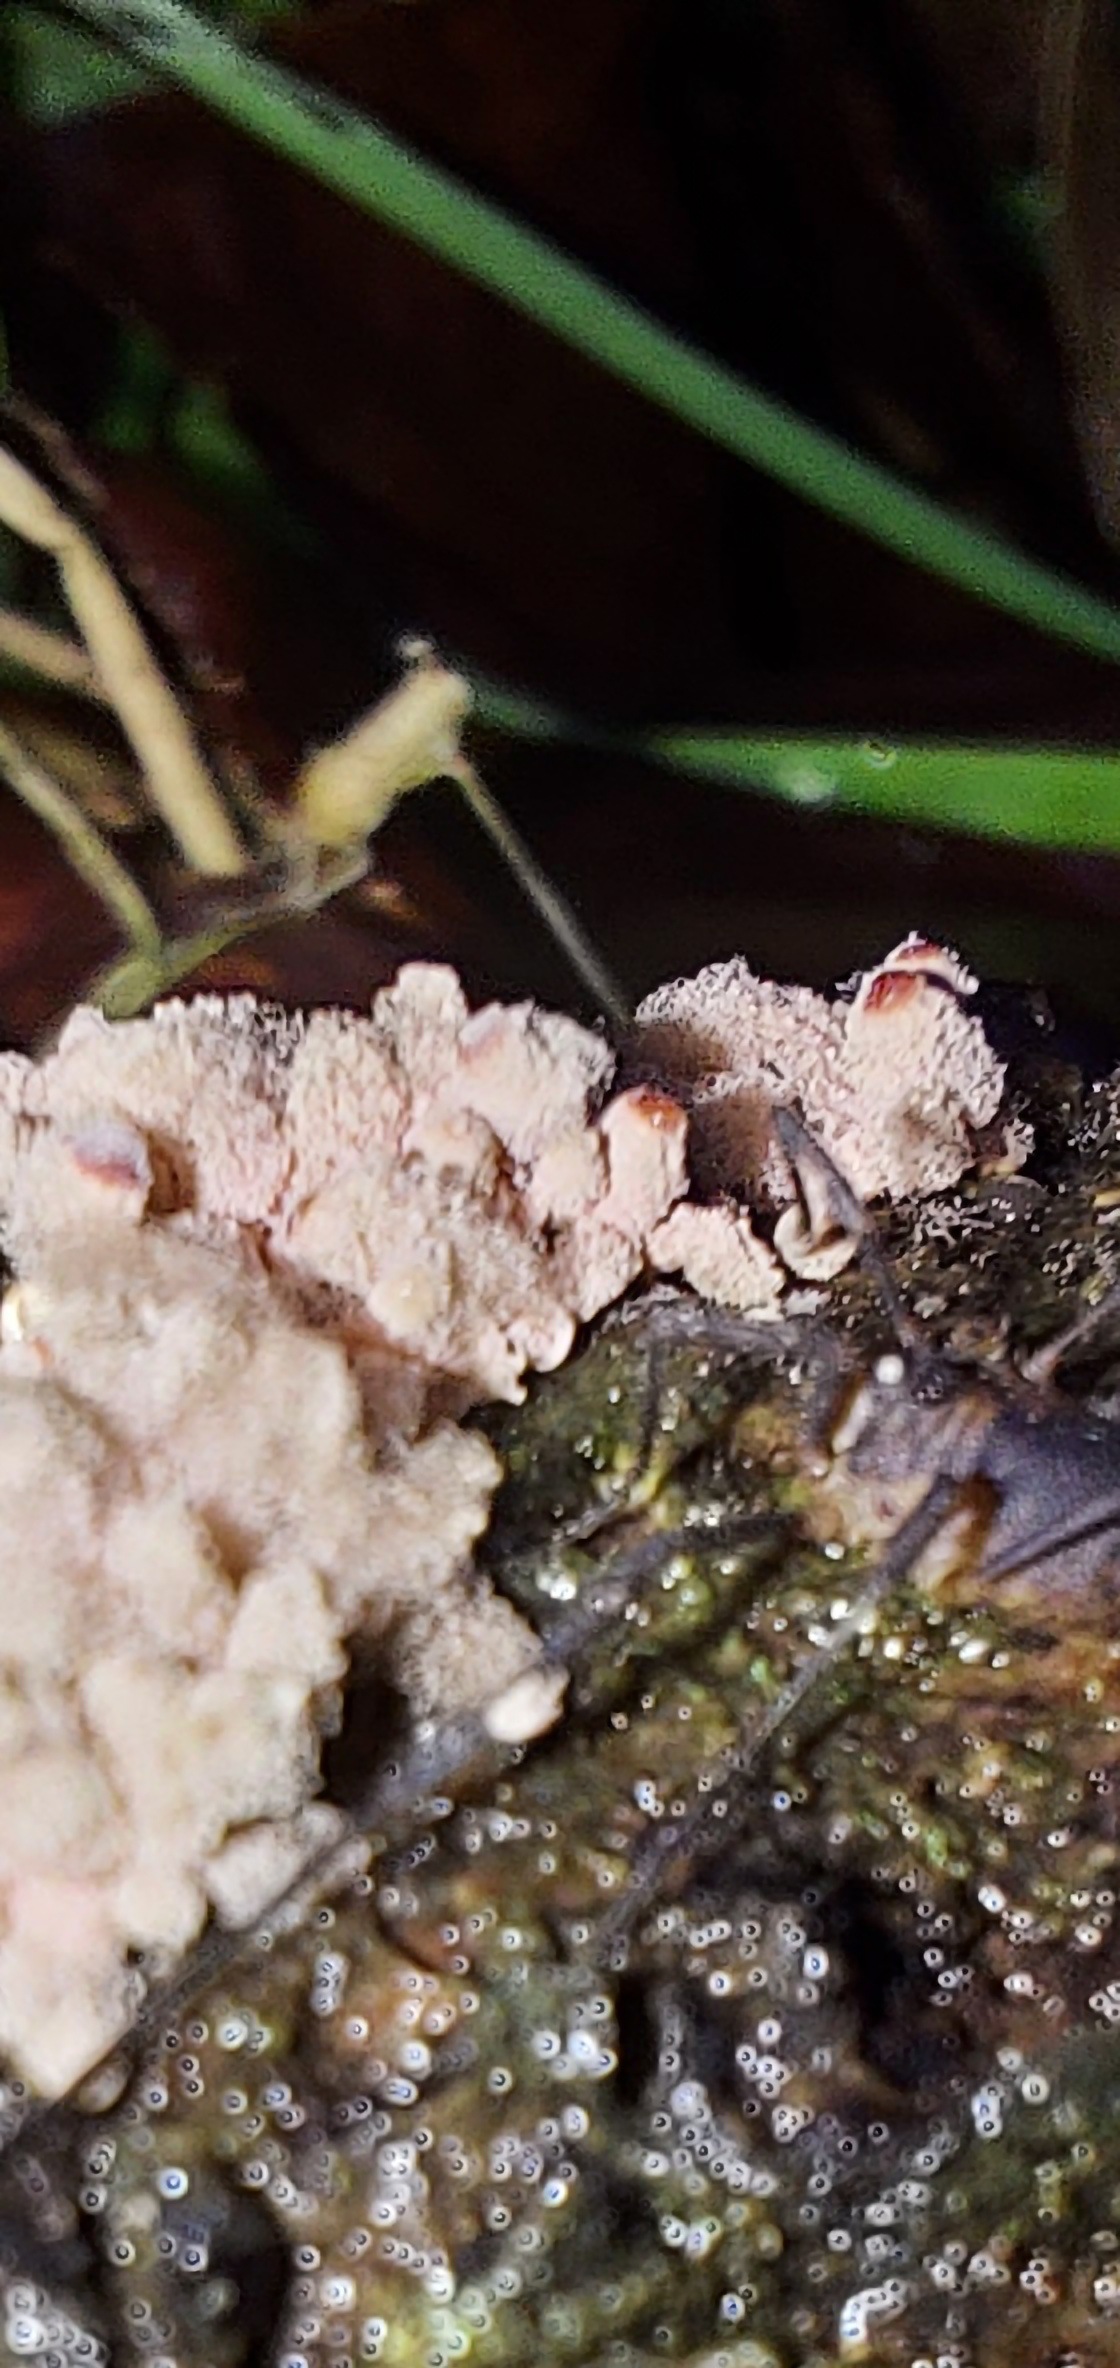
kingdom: Protozoa
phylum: Mycetozoa
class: Myxomycetes
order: Trichiales
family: Arcyriaceae
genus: Arcyria
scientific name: Arcyria incarnata
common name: rosa skålsvøb
